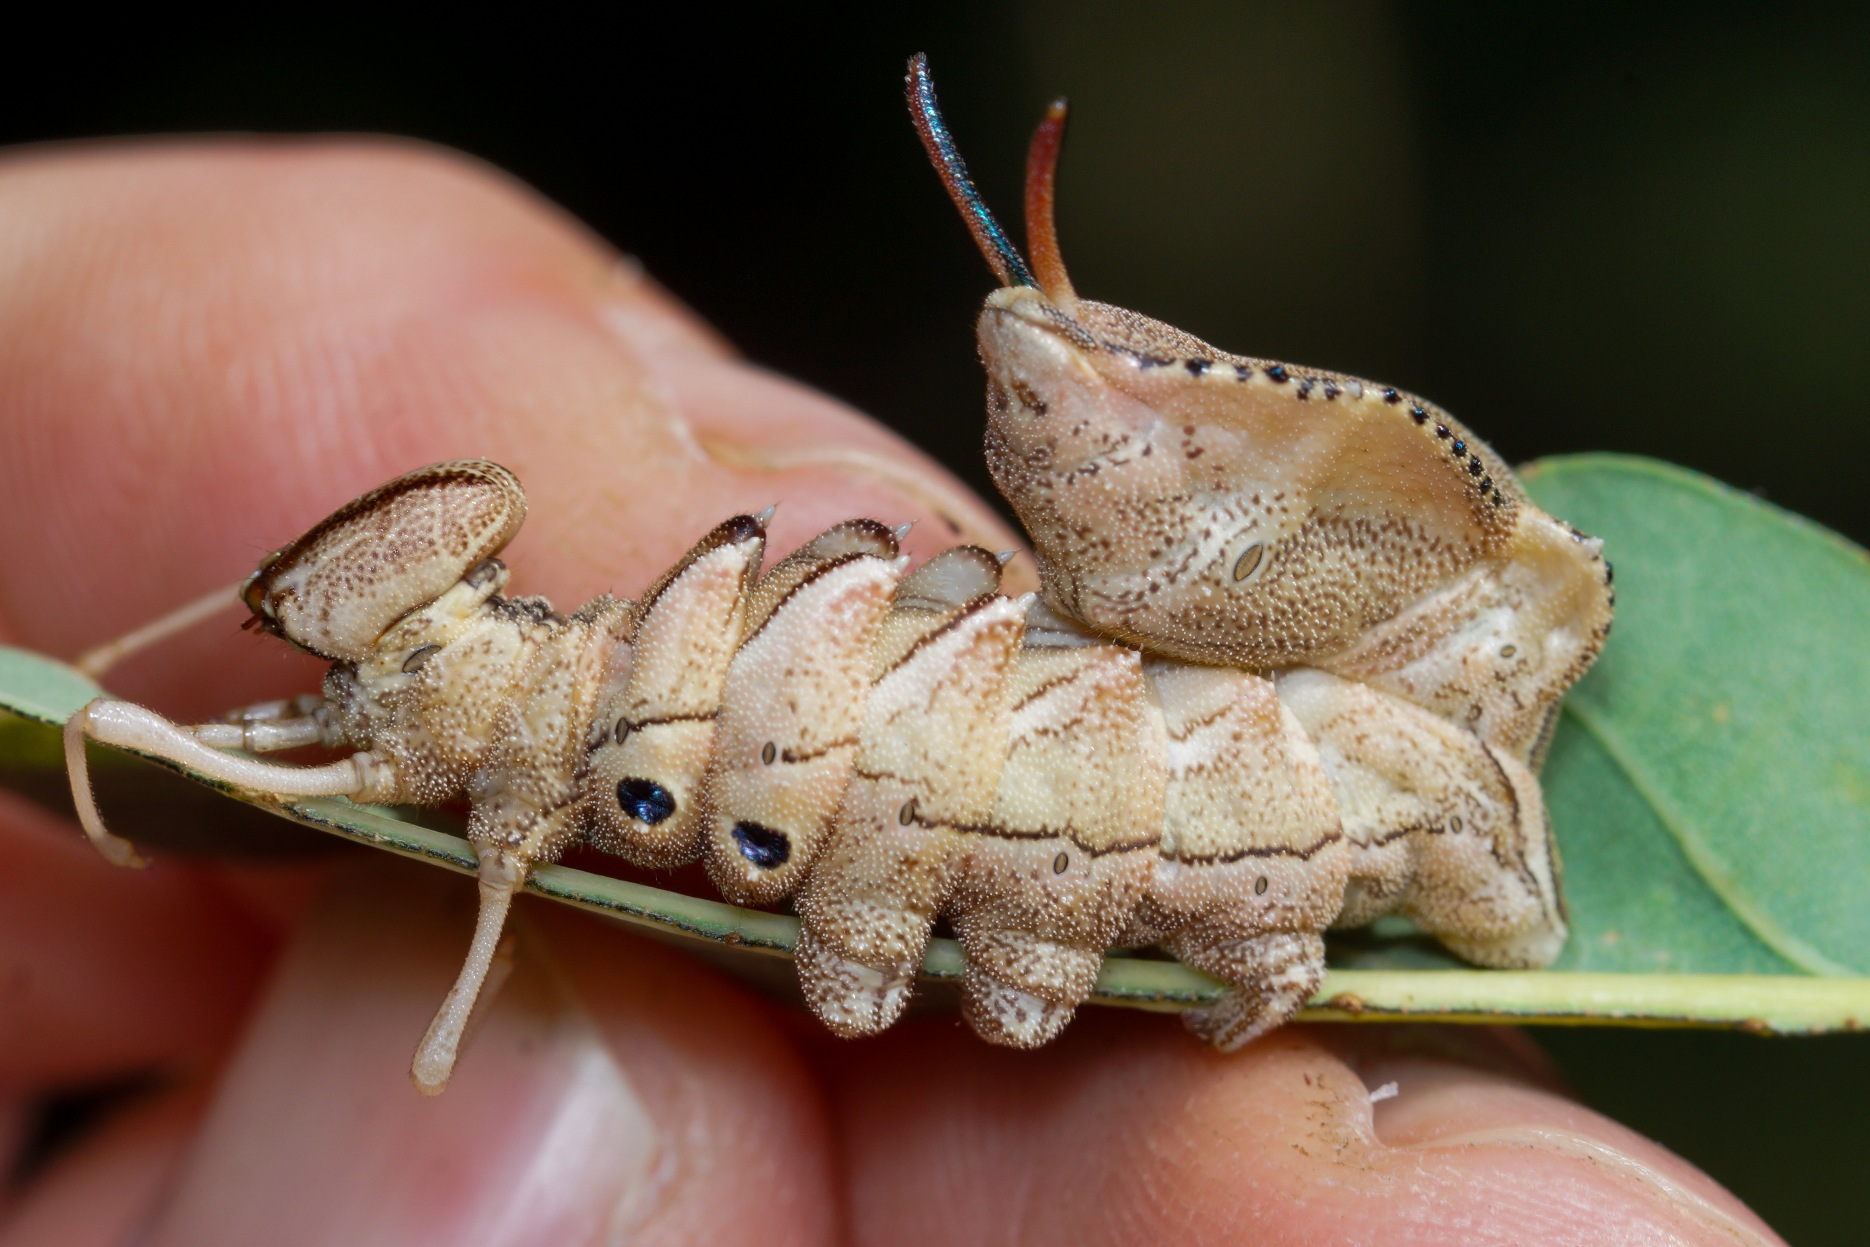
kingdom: Animalia
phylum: Arthropoda
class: Insecta
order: Lepidoptera
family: Notodontidae
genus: Stauropus
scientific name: Stauropus fagi
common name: Bøgespinder
